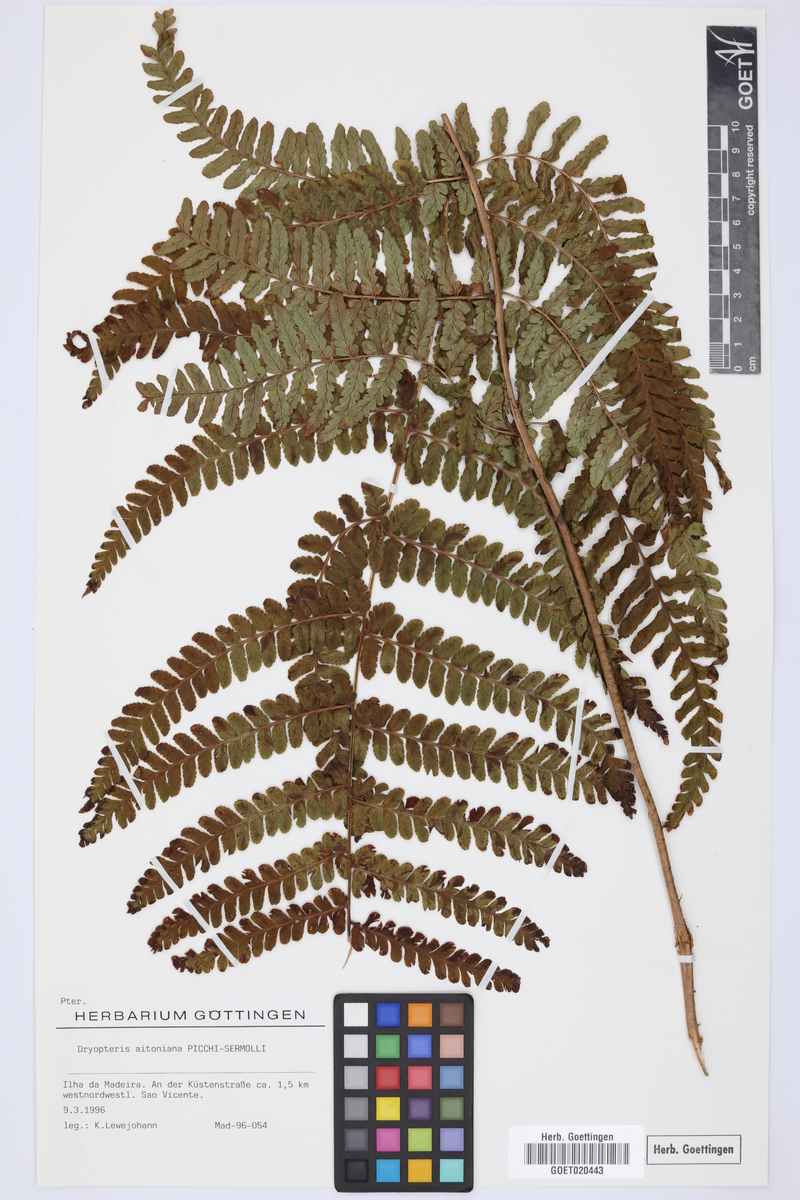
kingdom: Plantae
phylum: Tracheophyta
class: Polypodiopsida
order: Polypodiales
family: Dryopteridaceae
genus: Dryopteris
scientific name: Dryopteris aitoniana
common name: Aiton's buckler-fern
